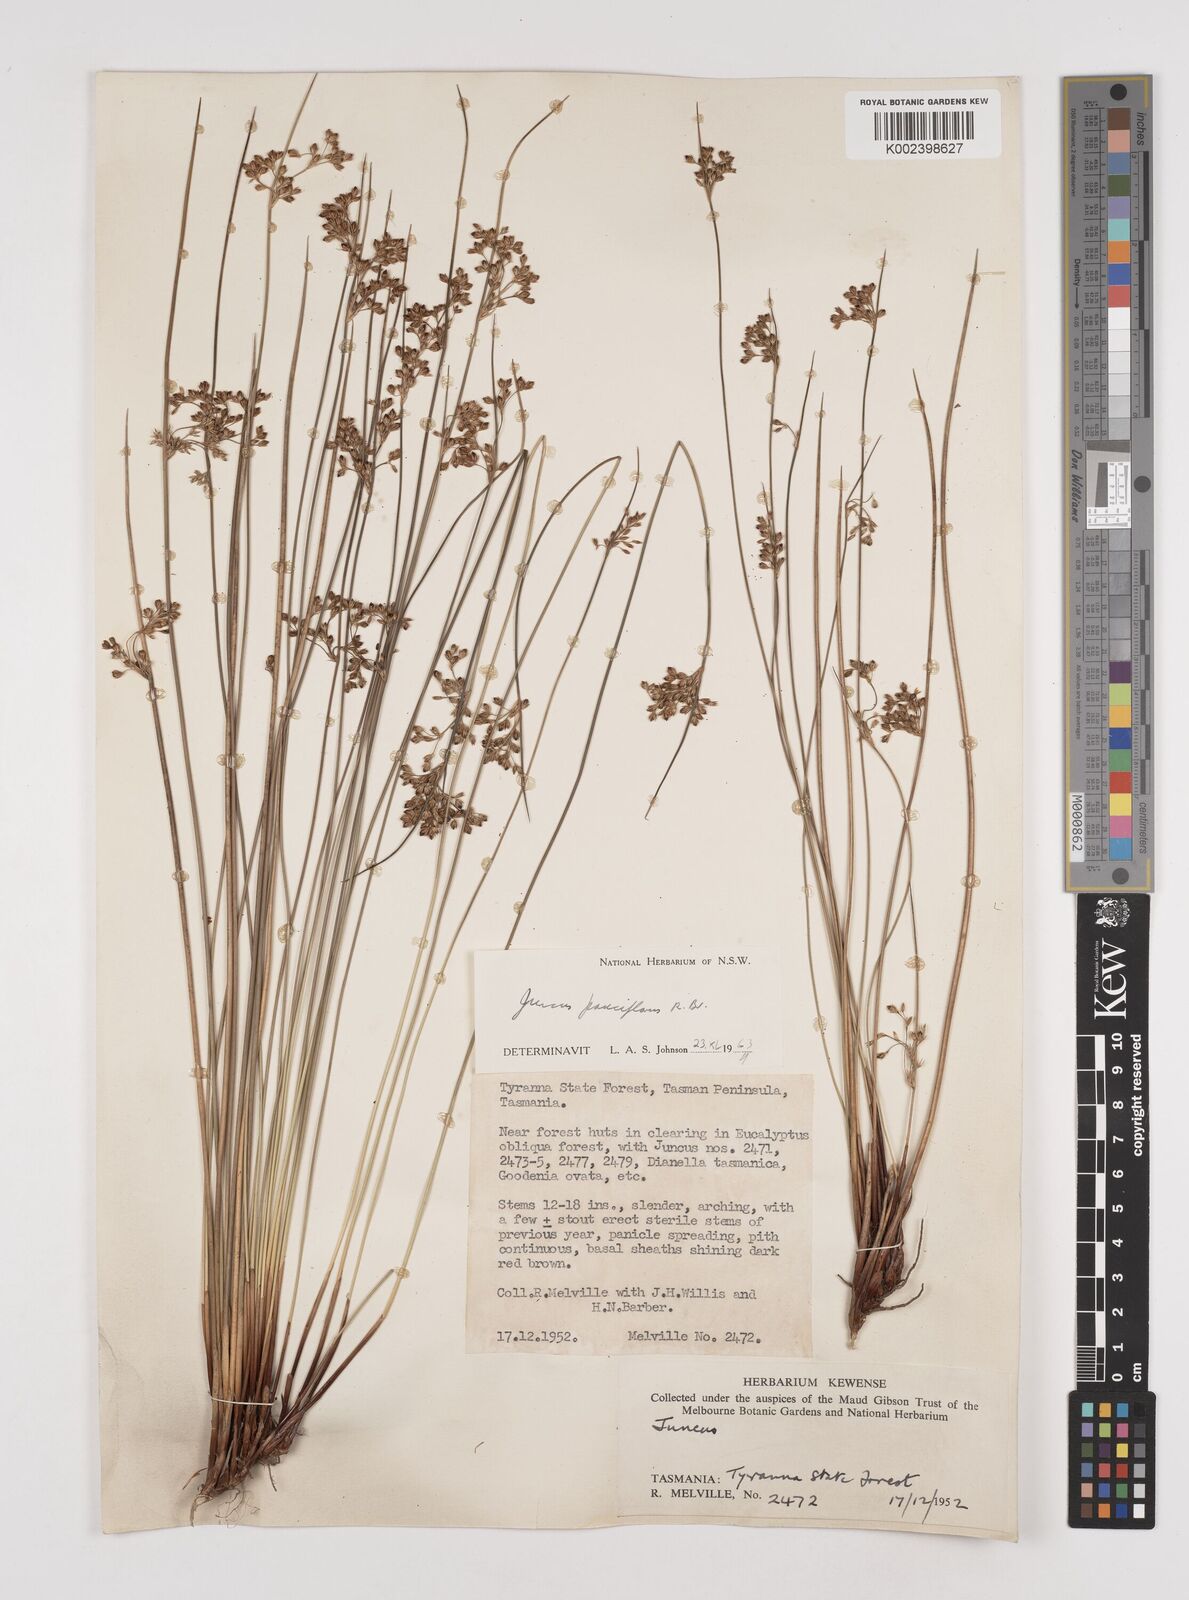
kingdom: Plantae
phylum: Tracheophyta
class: Liliopsida
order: Poales
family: Juncaceae
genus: Juncus
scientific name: Juncus pauciflorus
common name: Loose-flowered rush
